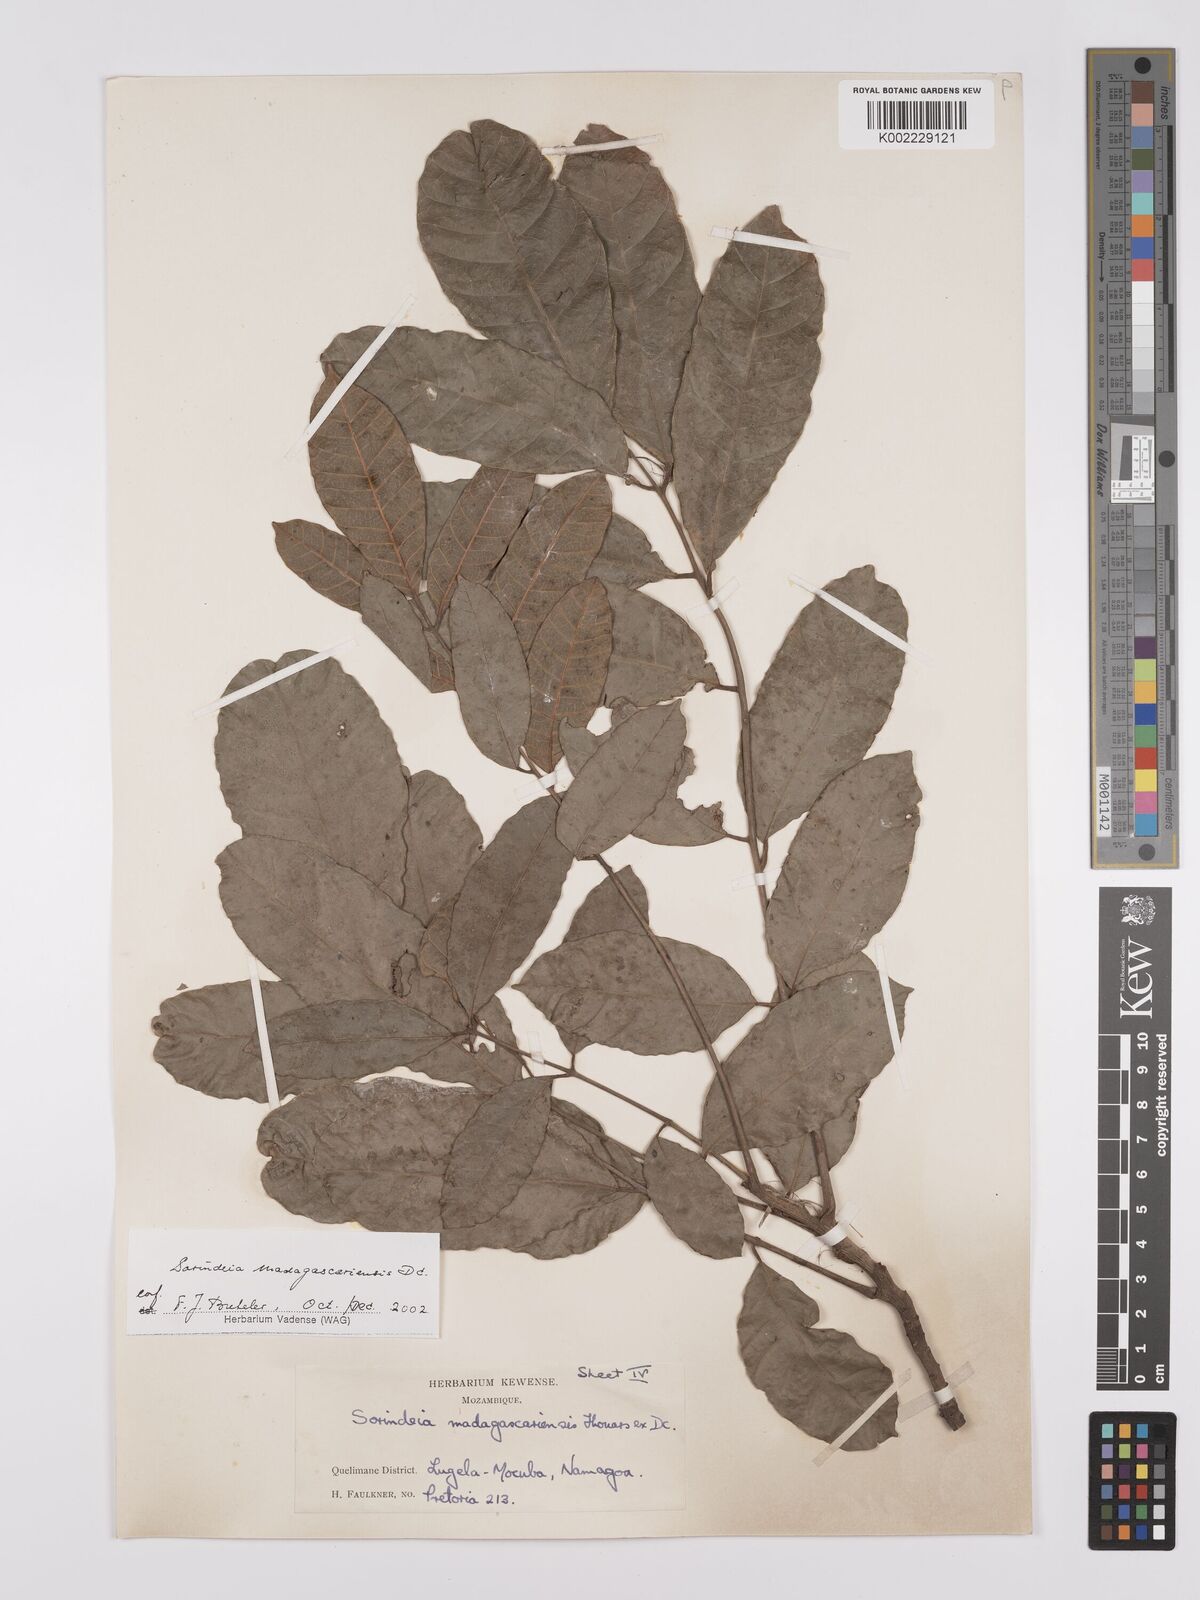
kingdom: Plantae
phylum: Tracheophyta
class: Magnoliopsida
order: Sapindales
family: Anacardiaceae
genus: Sorindeia
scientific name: Sorindeia madagascariensis
